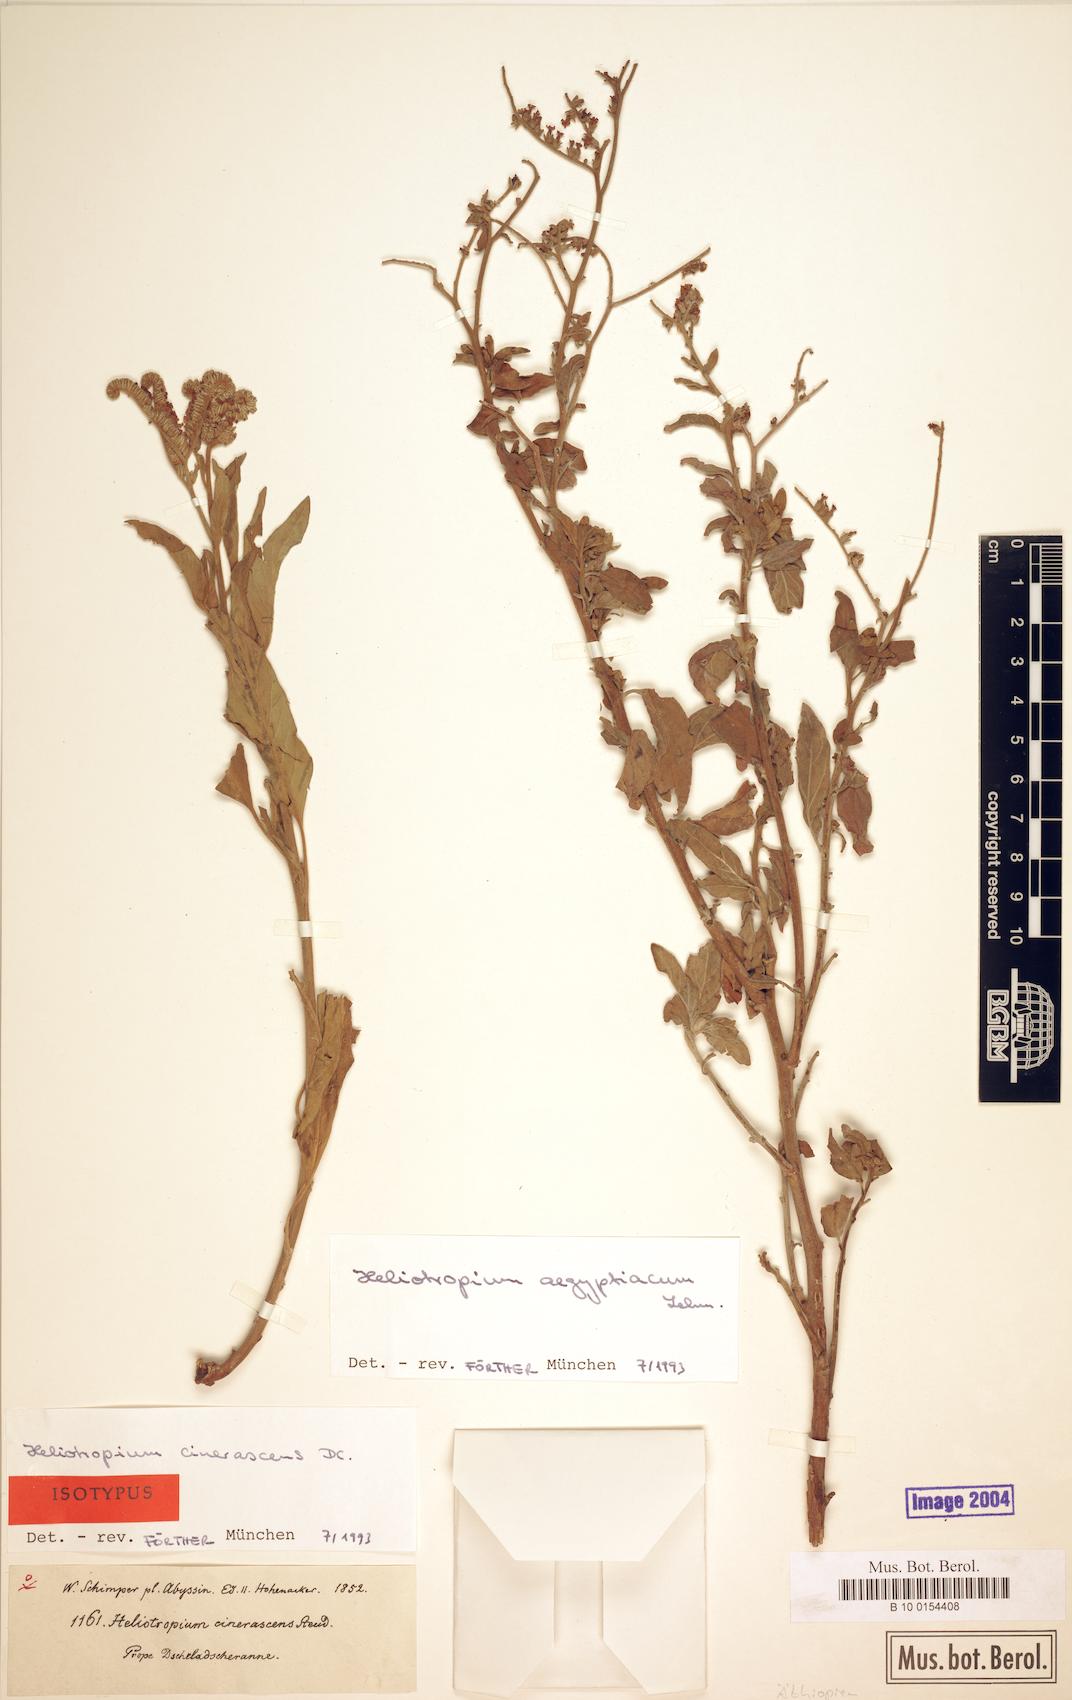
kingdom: Plantae
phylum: Tracheophyta
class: Magnoliopsida
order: Boraginales
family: Heliotropiaceae
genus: Heliotropium
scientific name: Heliotropium aegyptiacum
